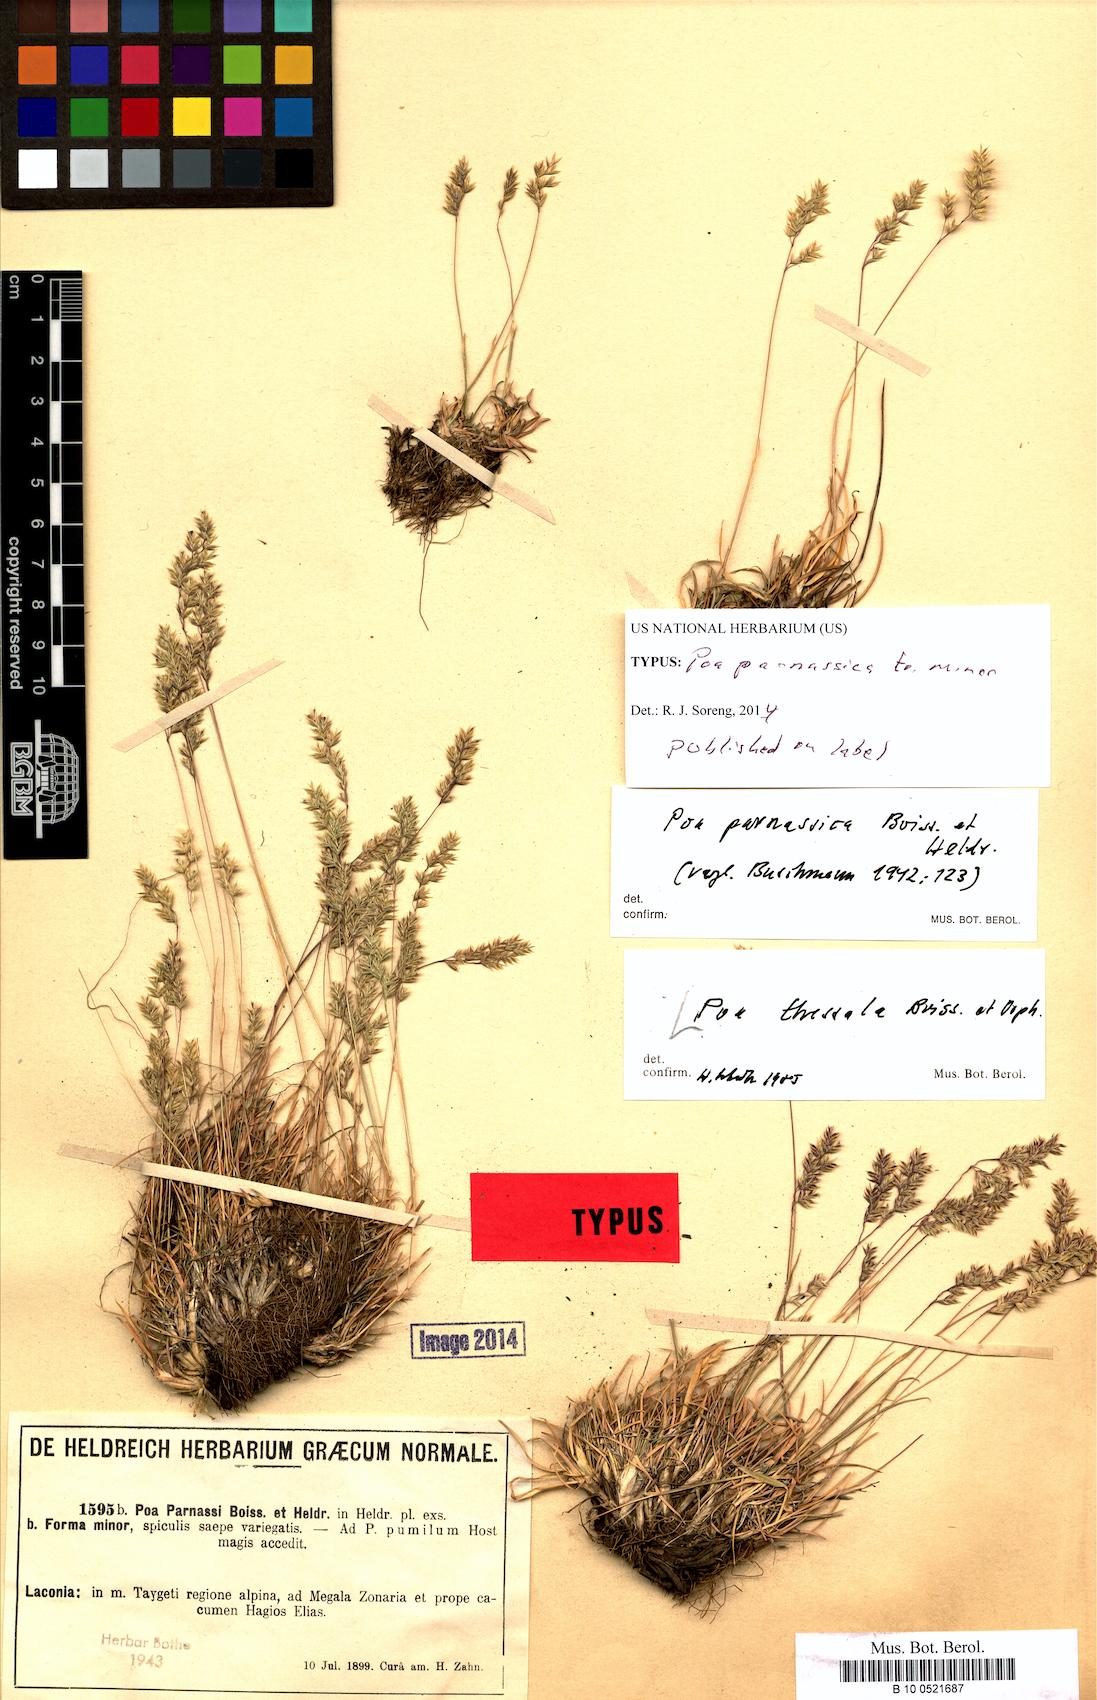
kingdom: Plantae
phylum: Tracheophyta
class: Liliopsida
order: Poales
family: Poaceae
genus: Poa
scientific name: Poa thessala
